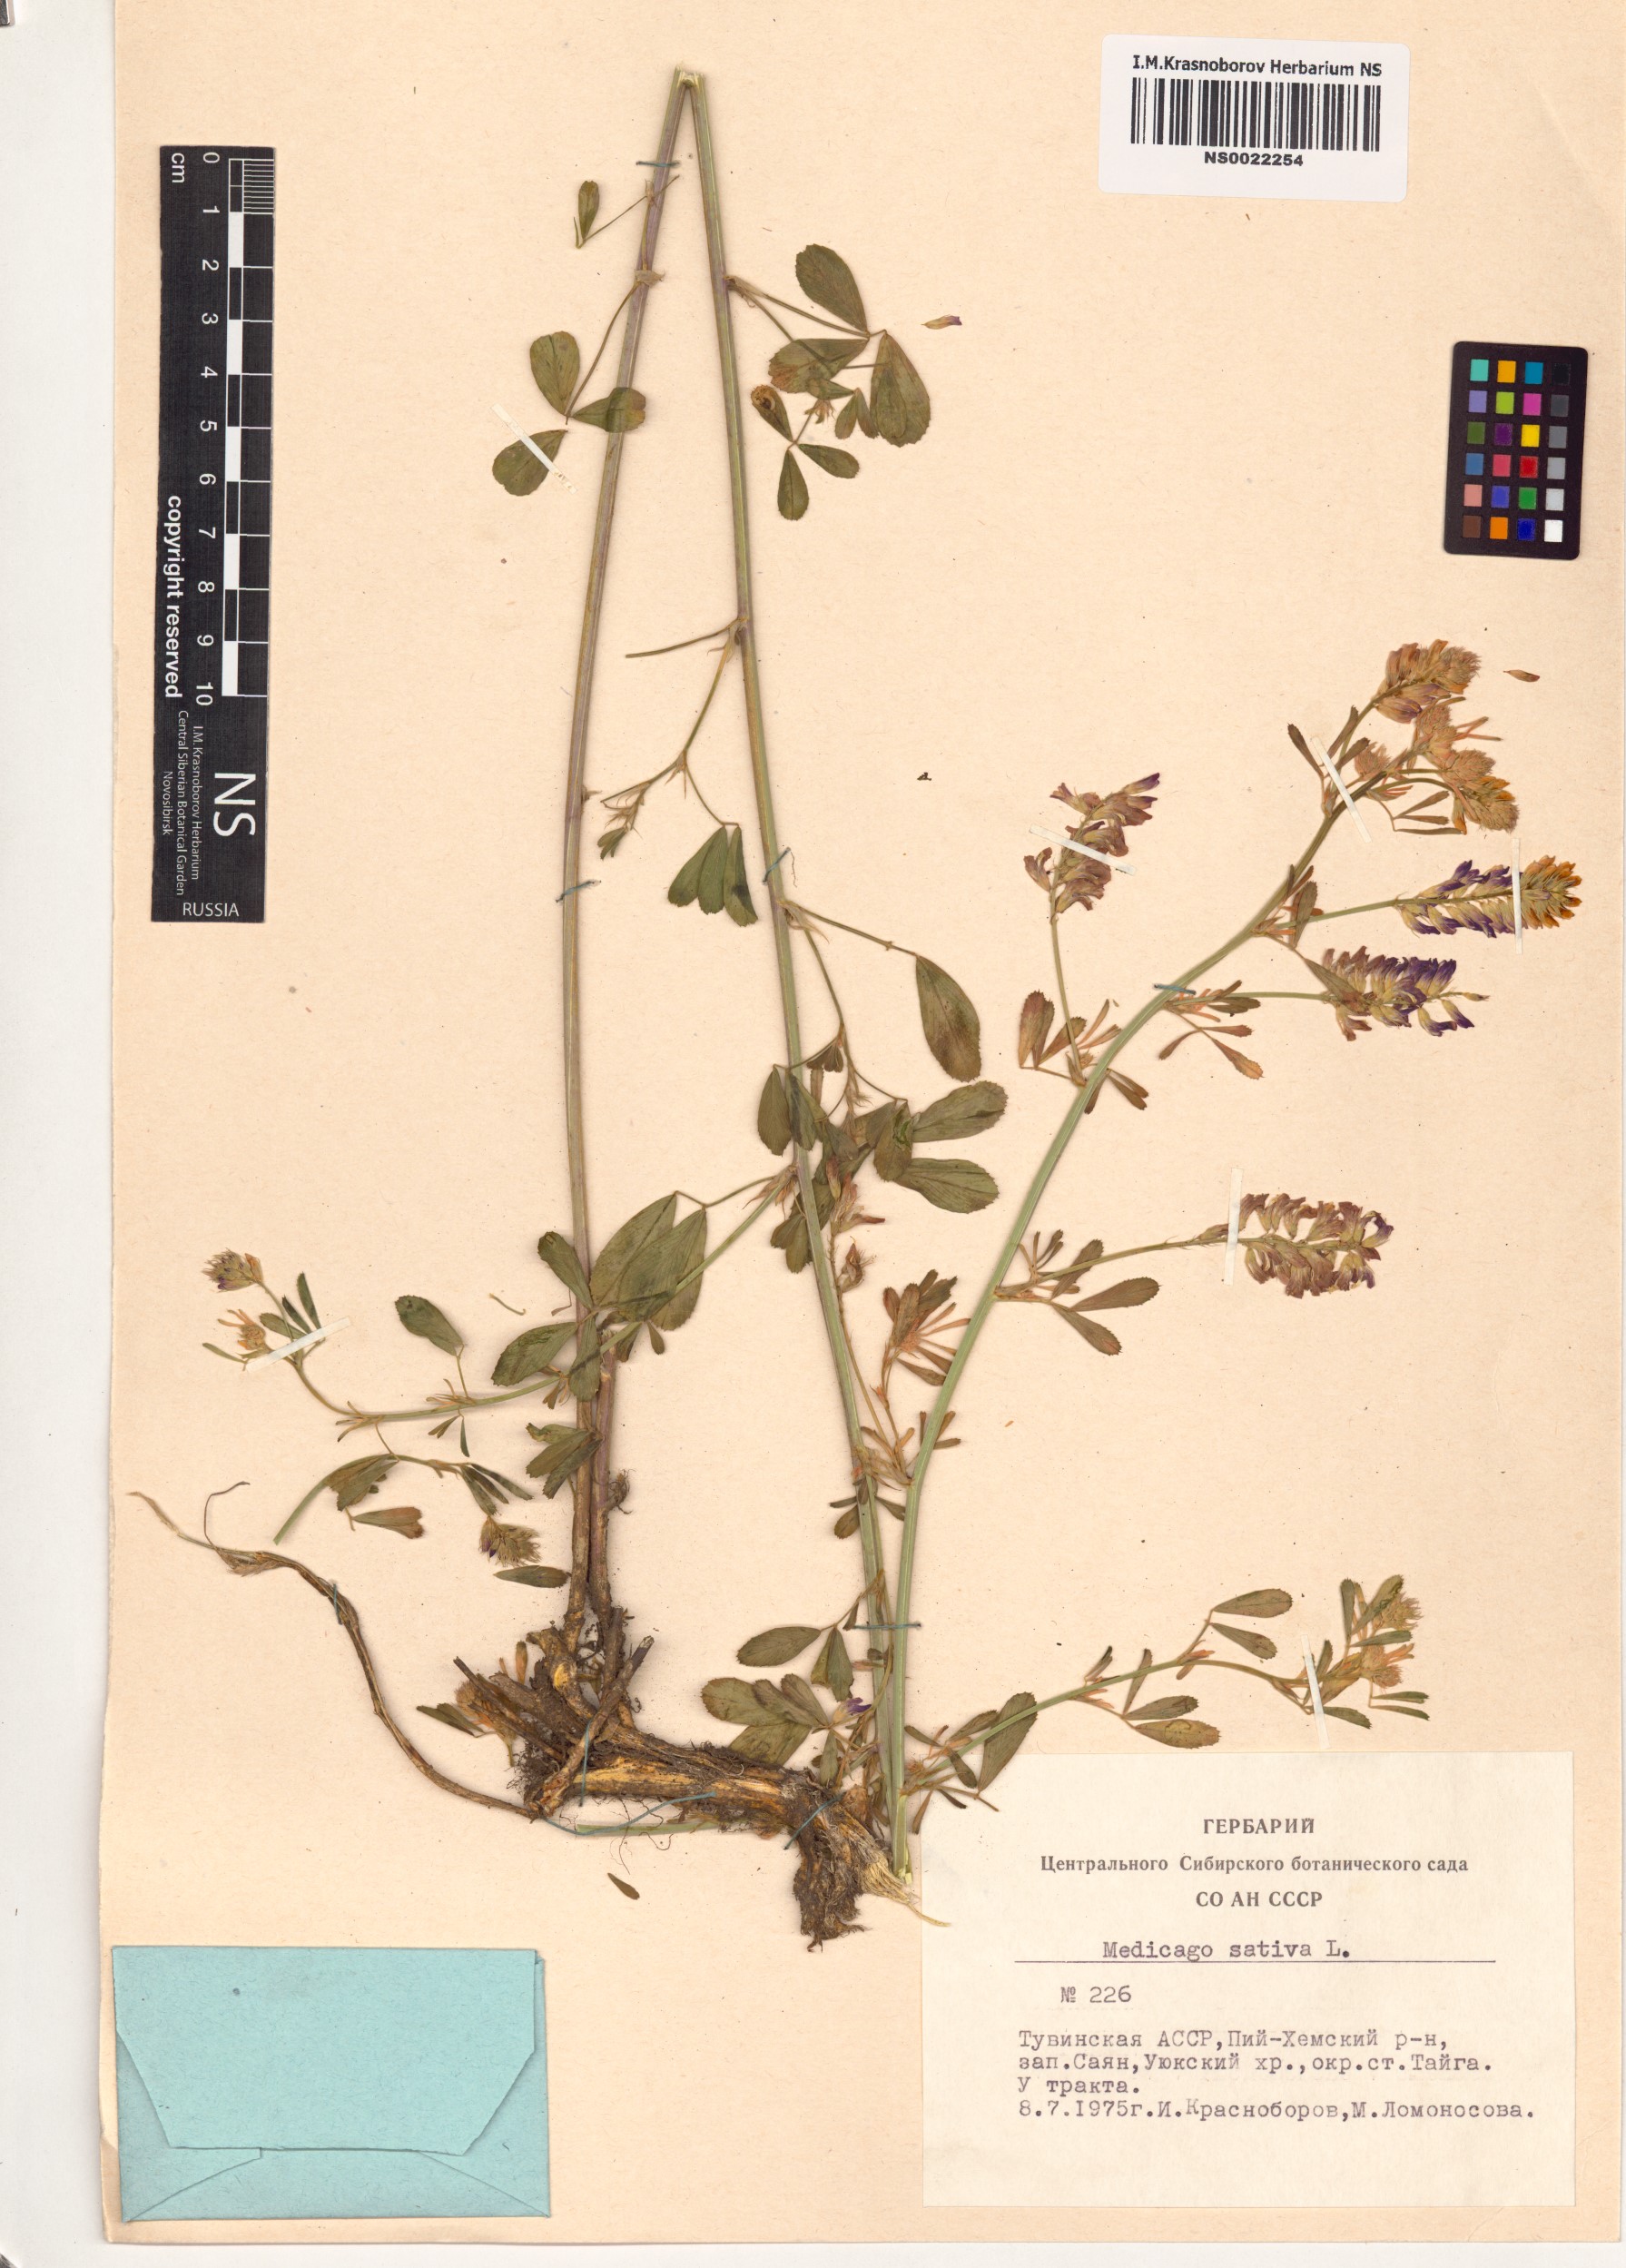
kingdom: Plantae
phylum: Tracheophyta
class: Magnoliopsida
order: Fabales
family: Fabaceae
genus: Medicago
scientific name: Medicago sativa
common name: Alfalfa
